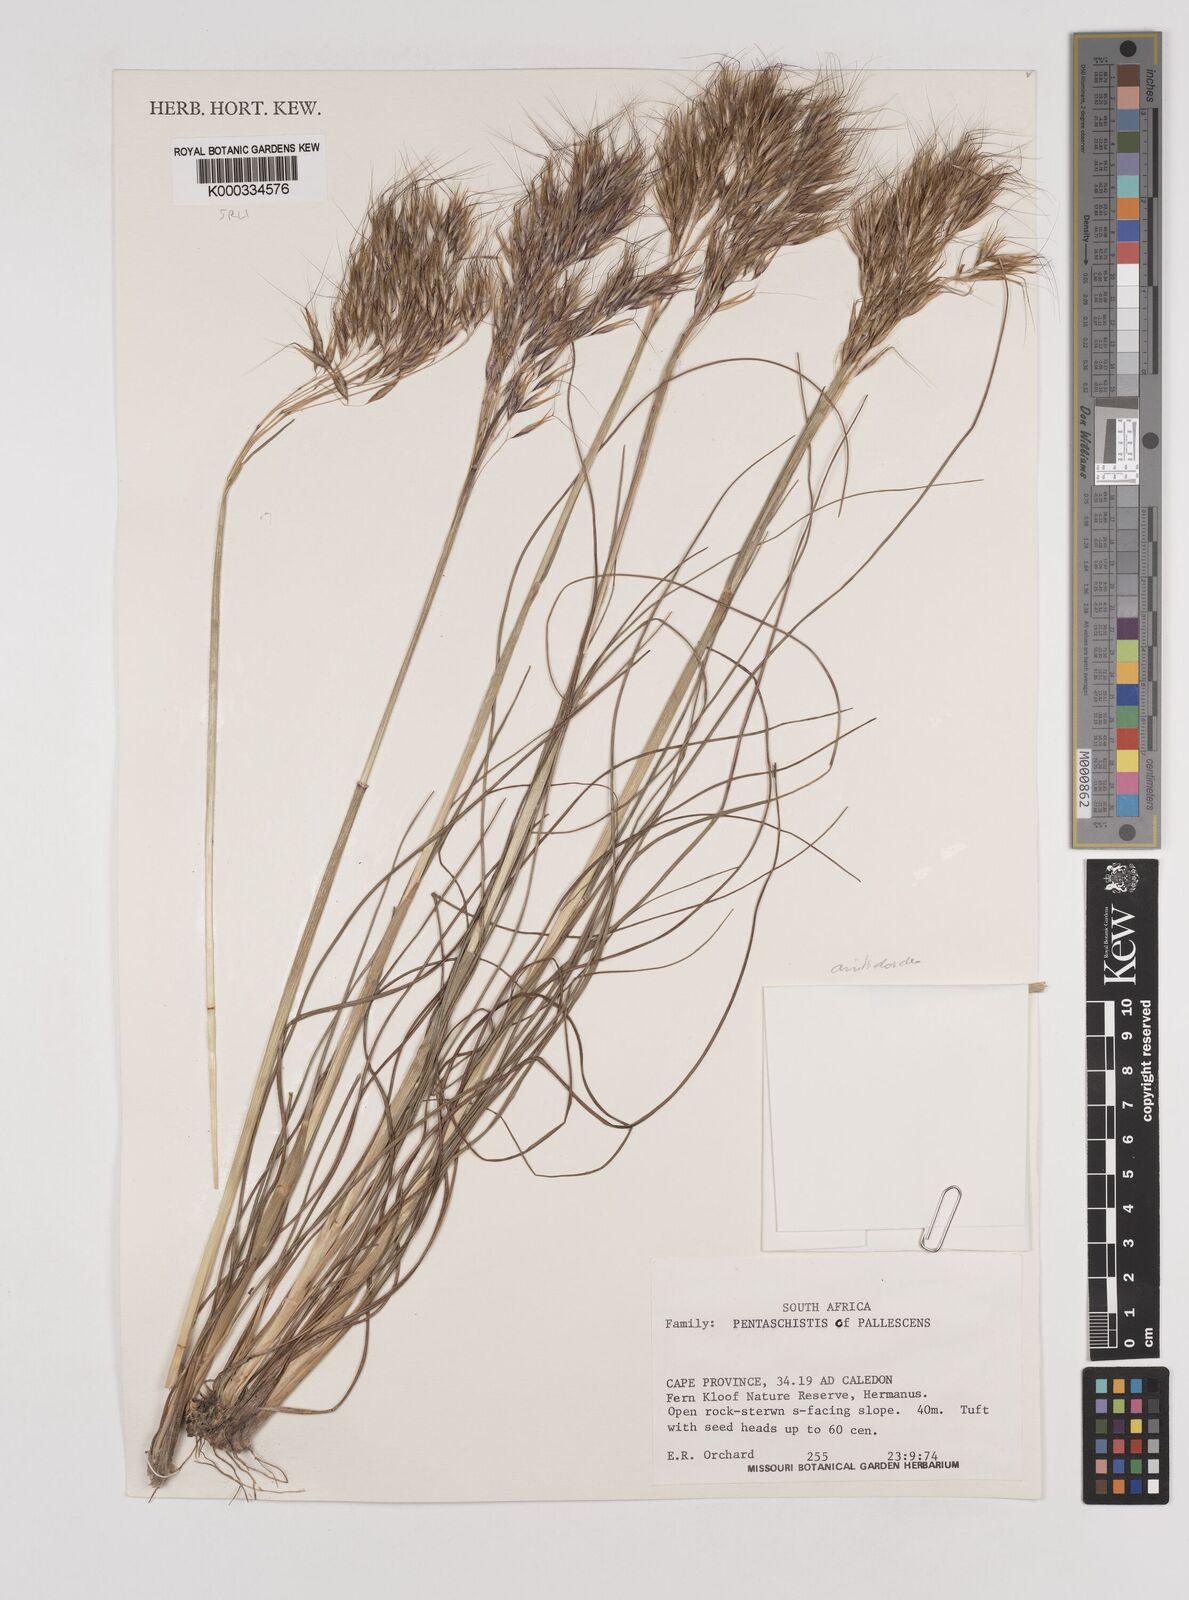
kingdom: Plantae
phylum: Tracheophyta
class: Liliopsida
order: Poales
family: Poaceae
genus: Pentameris
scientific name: Pentameris aristidoides
